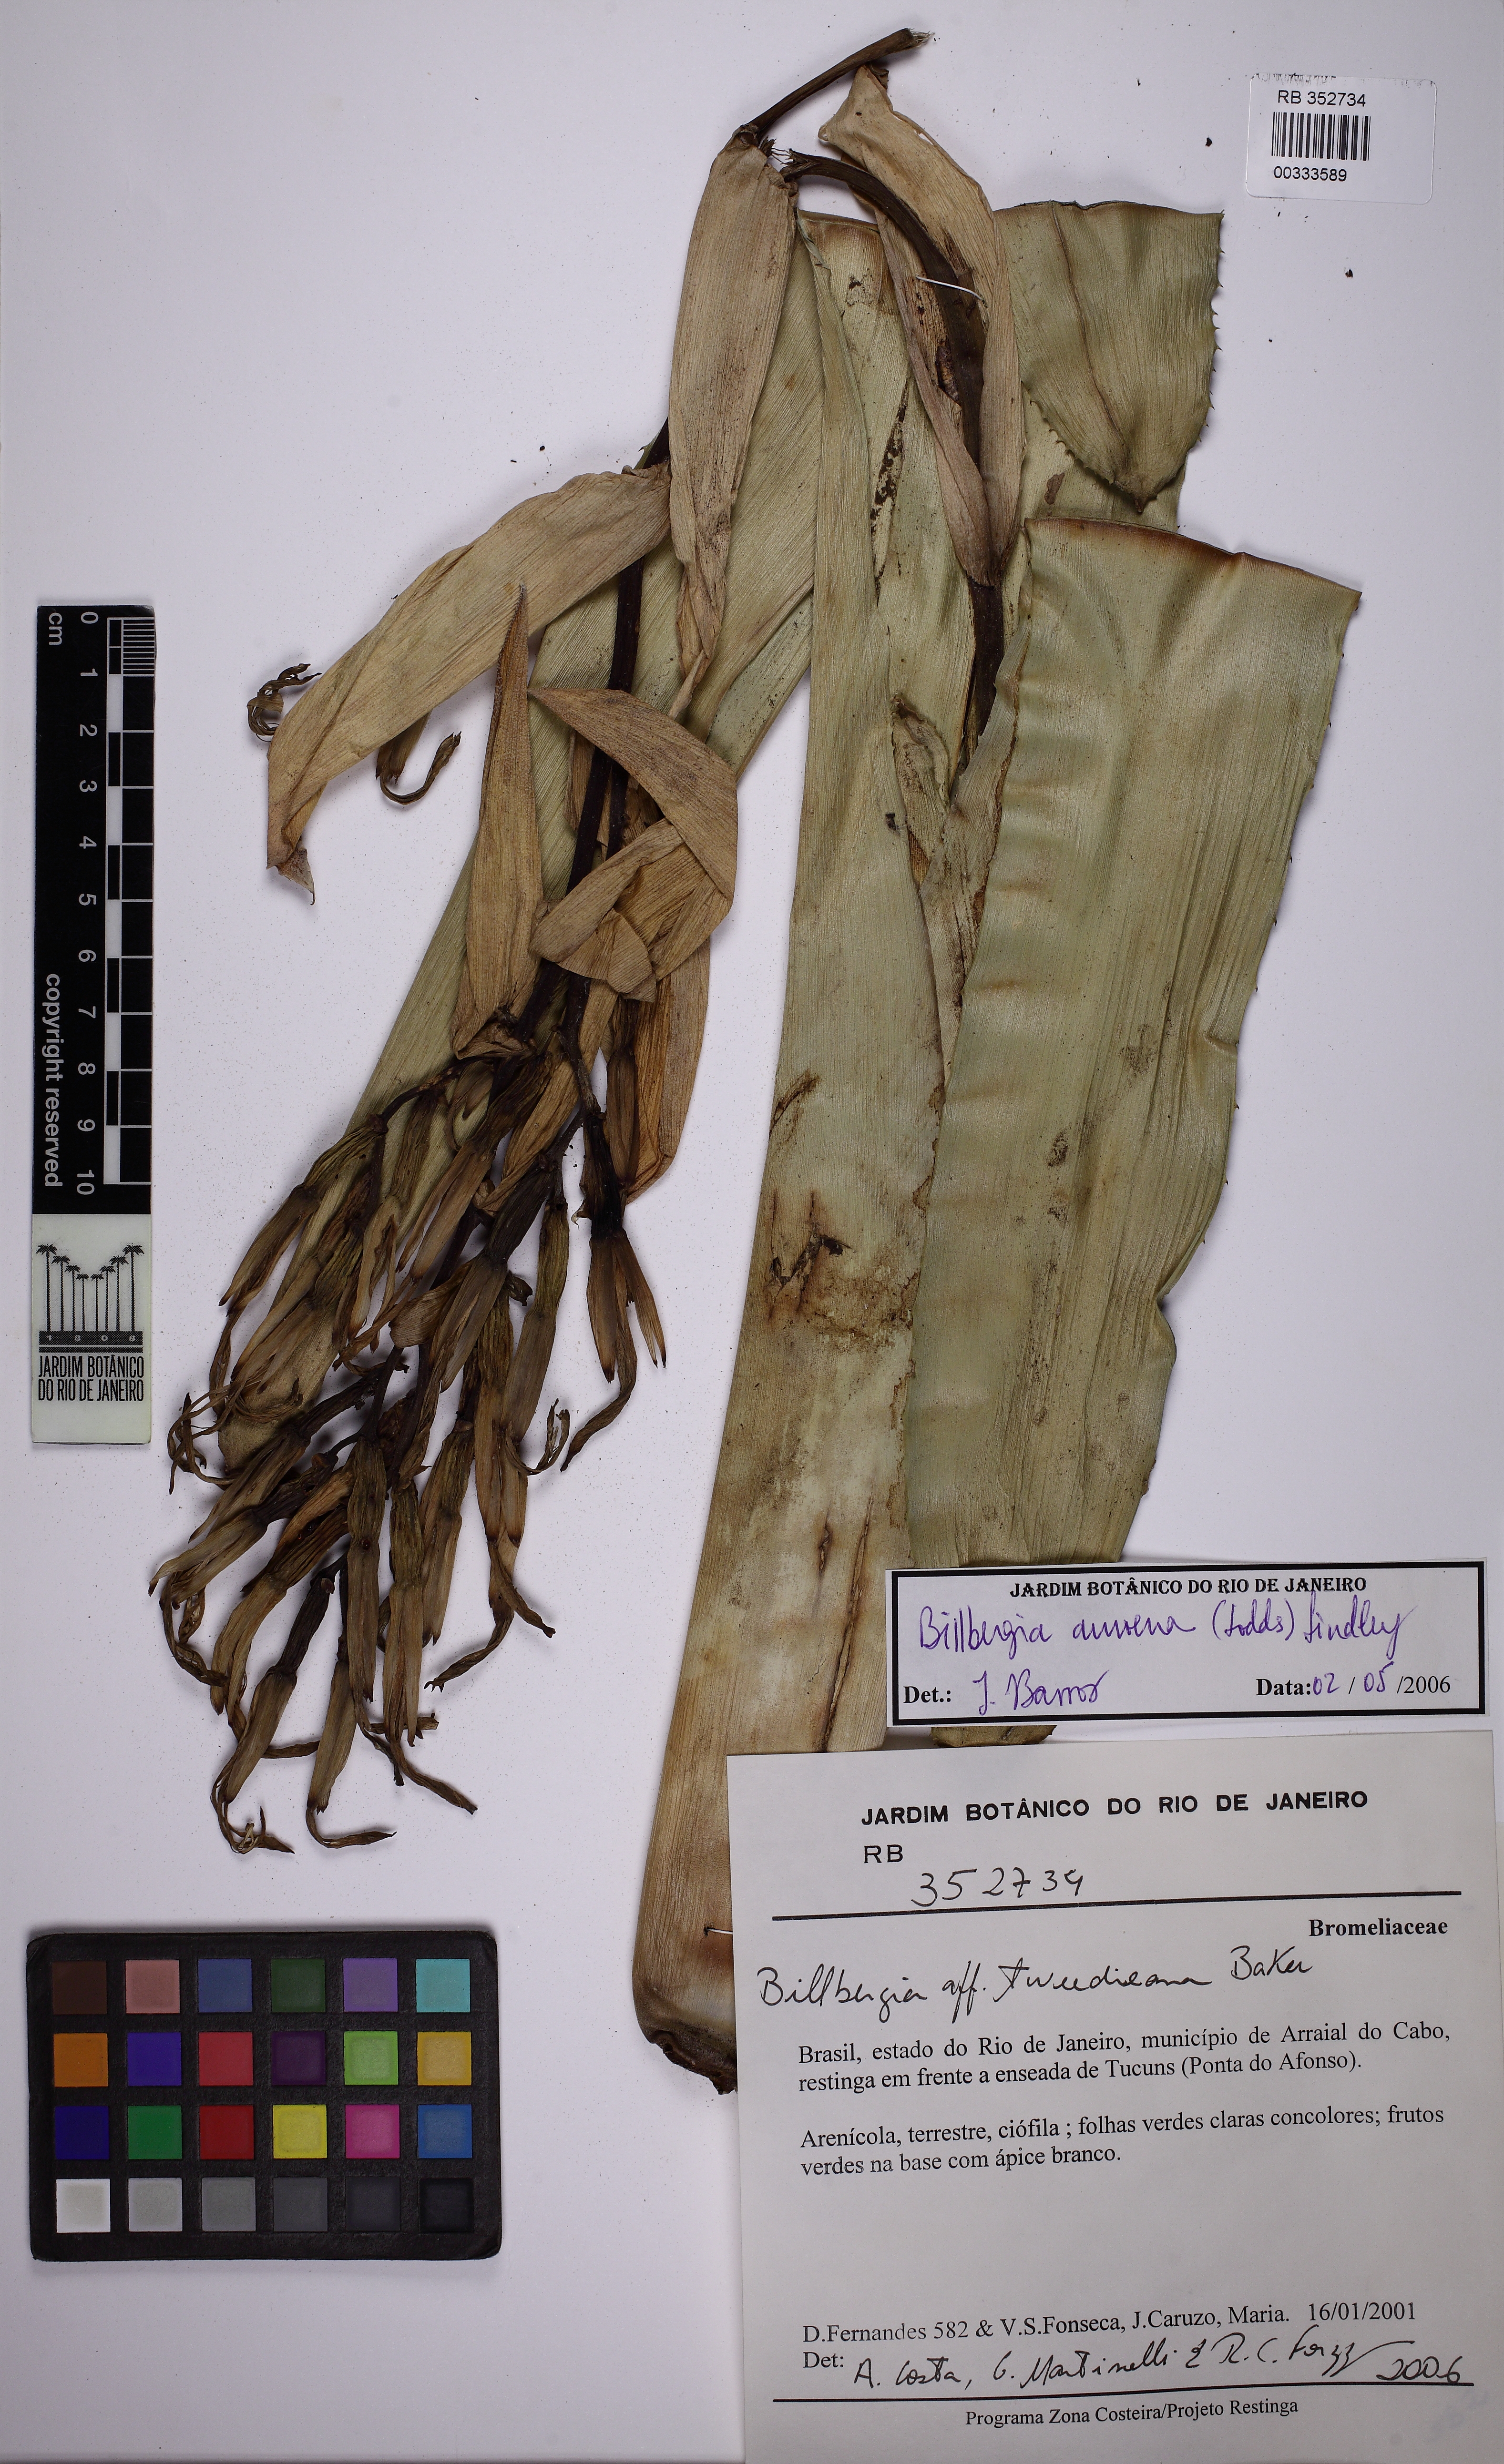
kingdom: Plantae
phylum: Tracheophyta
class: Liliopsida
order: Poales
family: Bromeliaceae
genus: Billbergia
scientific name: Billbergia amoena
